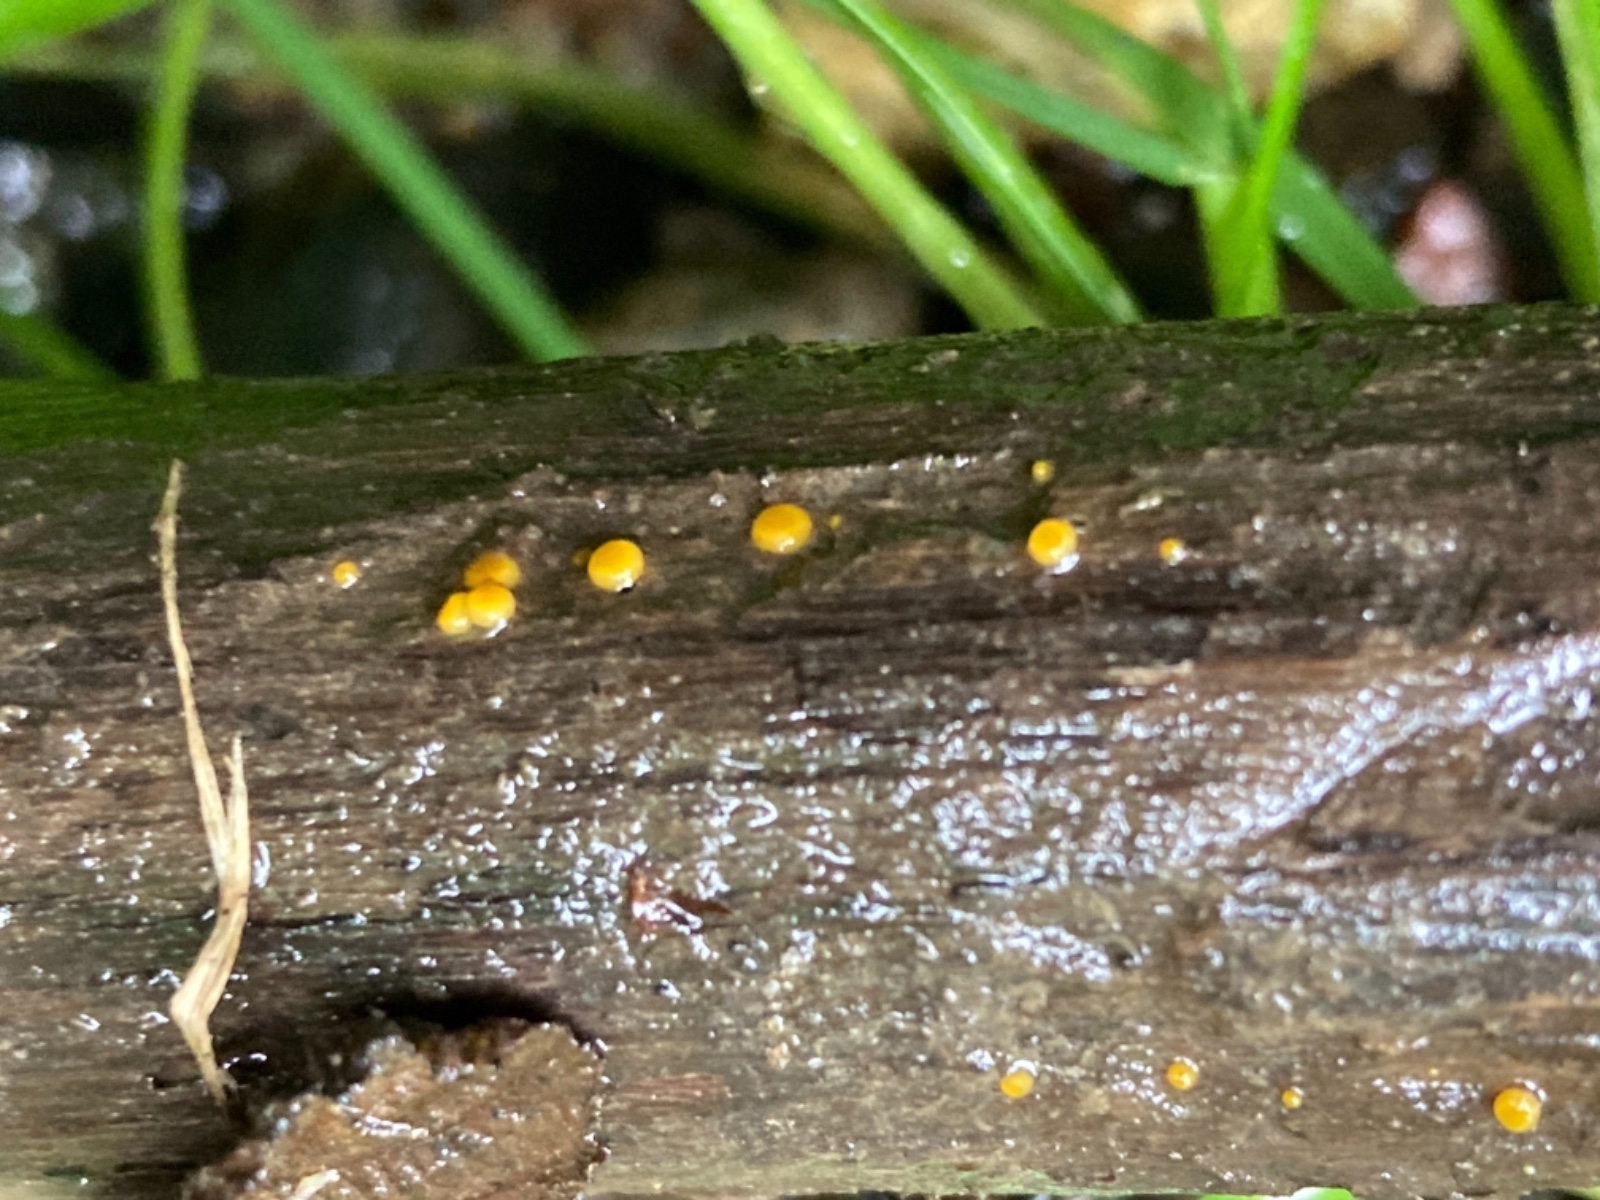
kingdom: Fungi
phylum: Ascomycota
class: Pezizomycetes
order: Pezizales
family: Pyronemataceae
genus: Miladina
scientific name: Miladina lecithina
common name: vandbæger
